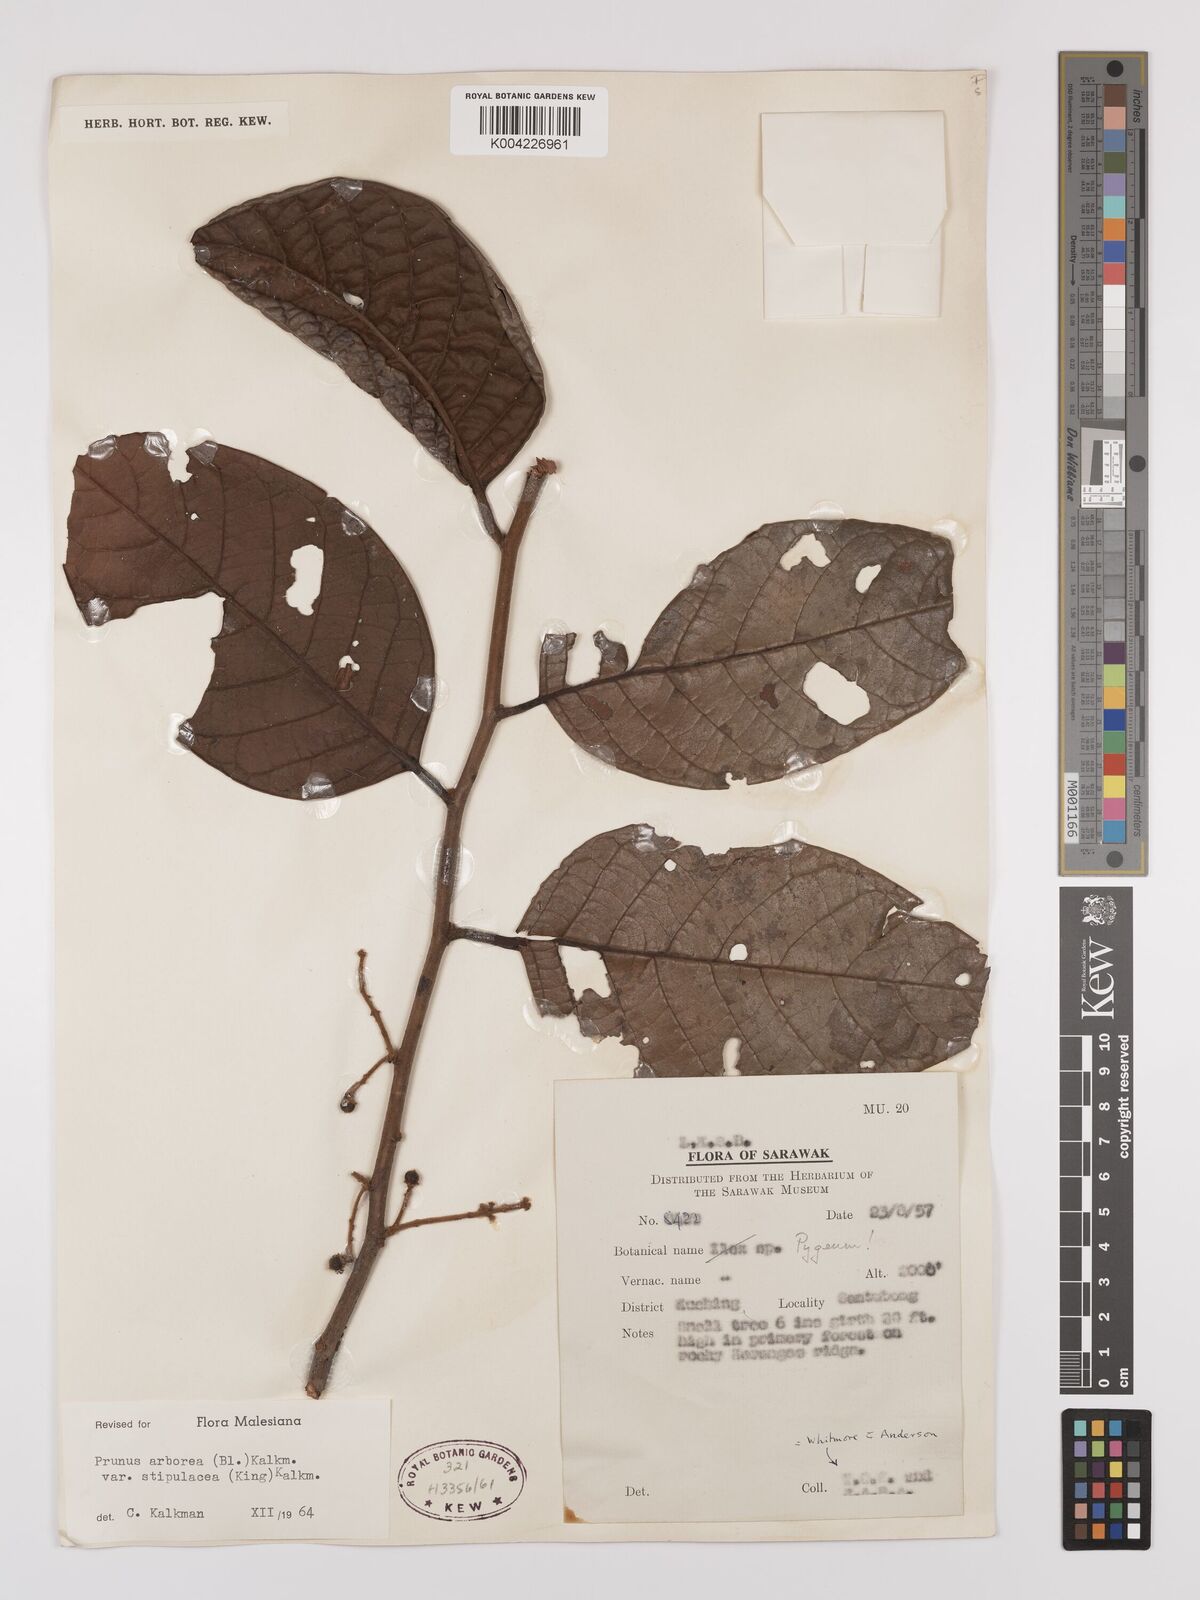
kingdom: Plantae
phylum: Tracheophyta
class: Magnoliopsida
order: Rosales
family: Rosaceae
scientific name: Rosaceae
